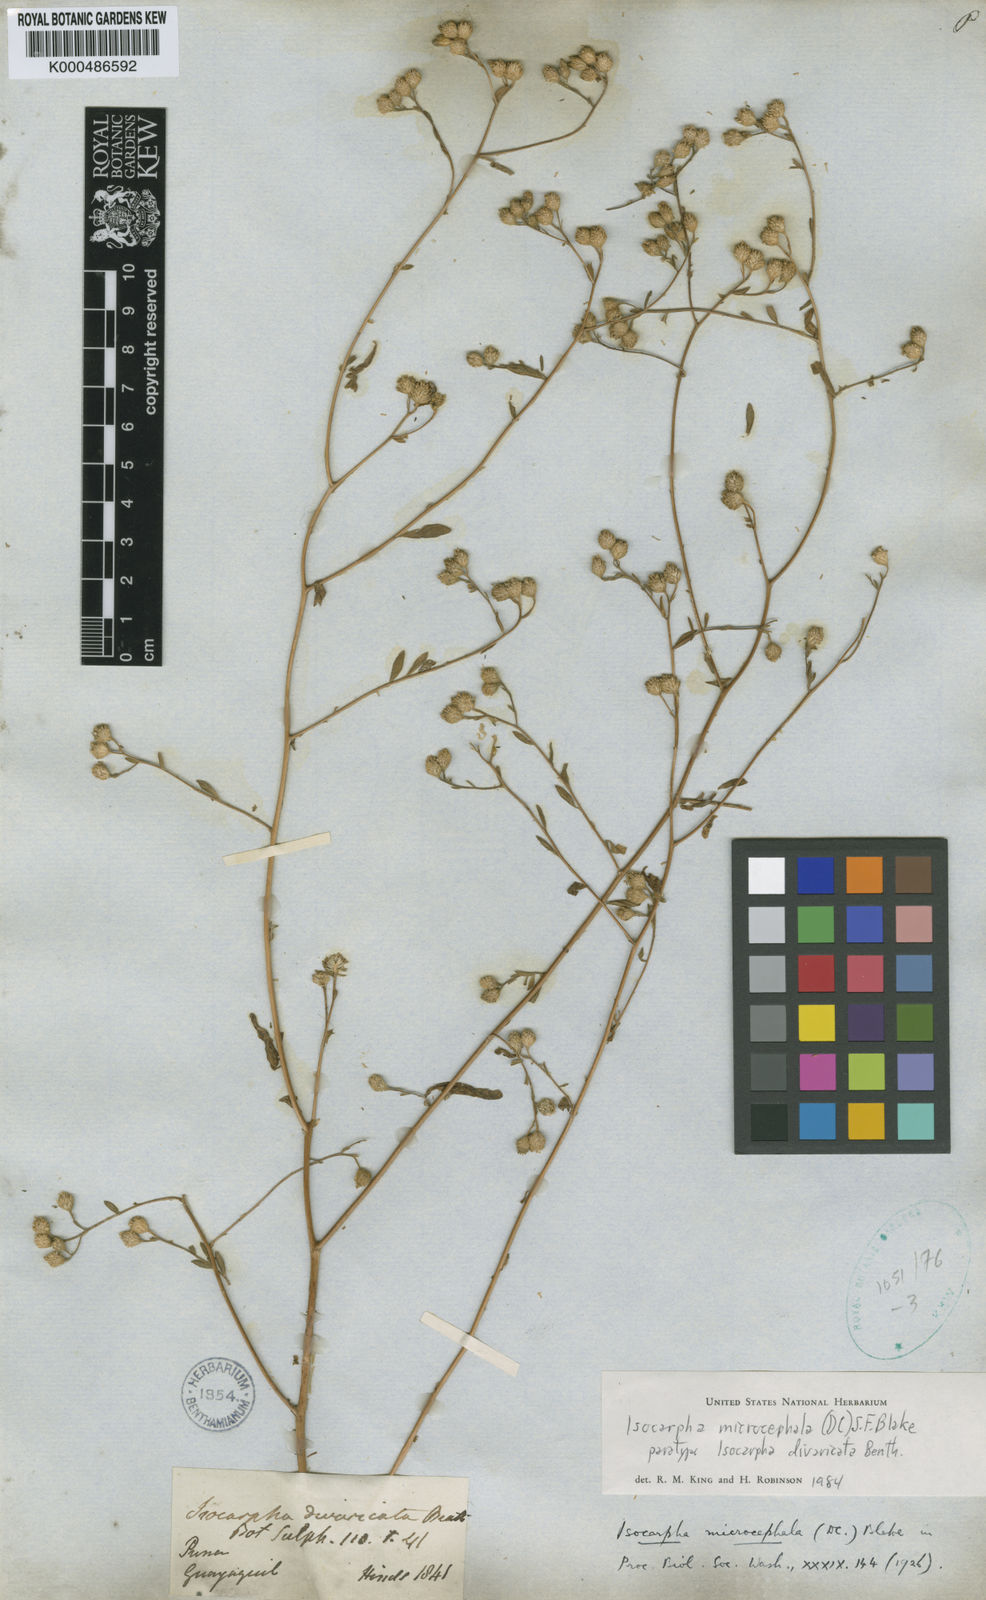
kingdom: Plantae
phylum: Tracheophyta
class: Magnoliopsida
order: Asterales
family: Asteraceae
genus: Isocarpha
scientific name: Isocarpha microcephala
